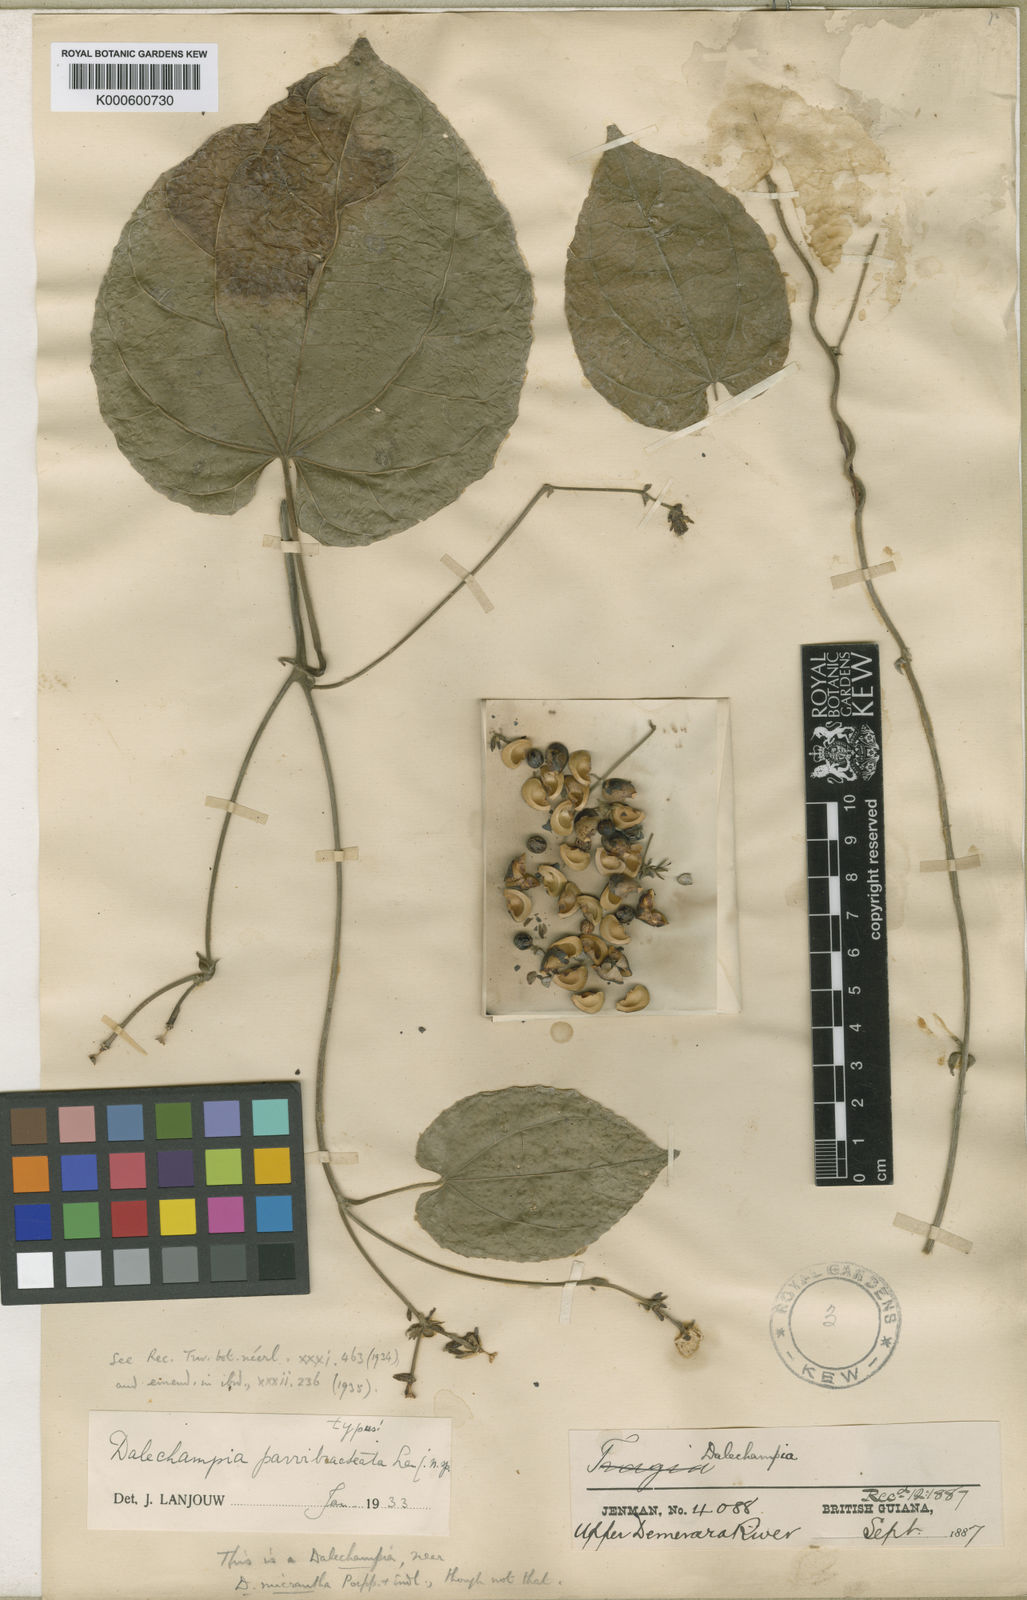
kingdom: Plantae
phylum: Tracheophyta
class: Magnoliopsida
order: Malpighiales
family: Euphorbiaceae
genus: Dalechampia
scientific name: Dalechampia parvibracteata
